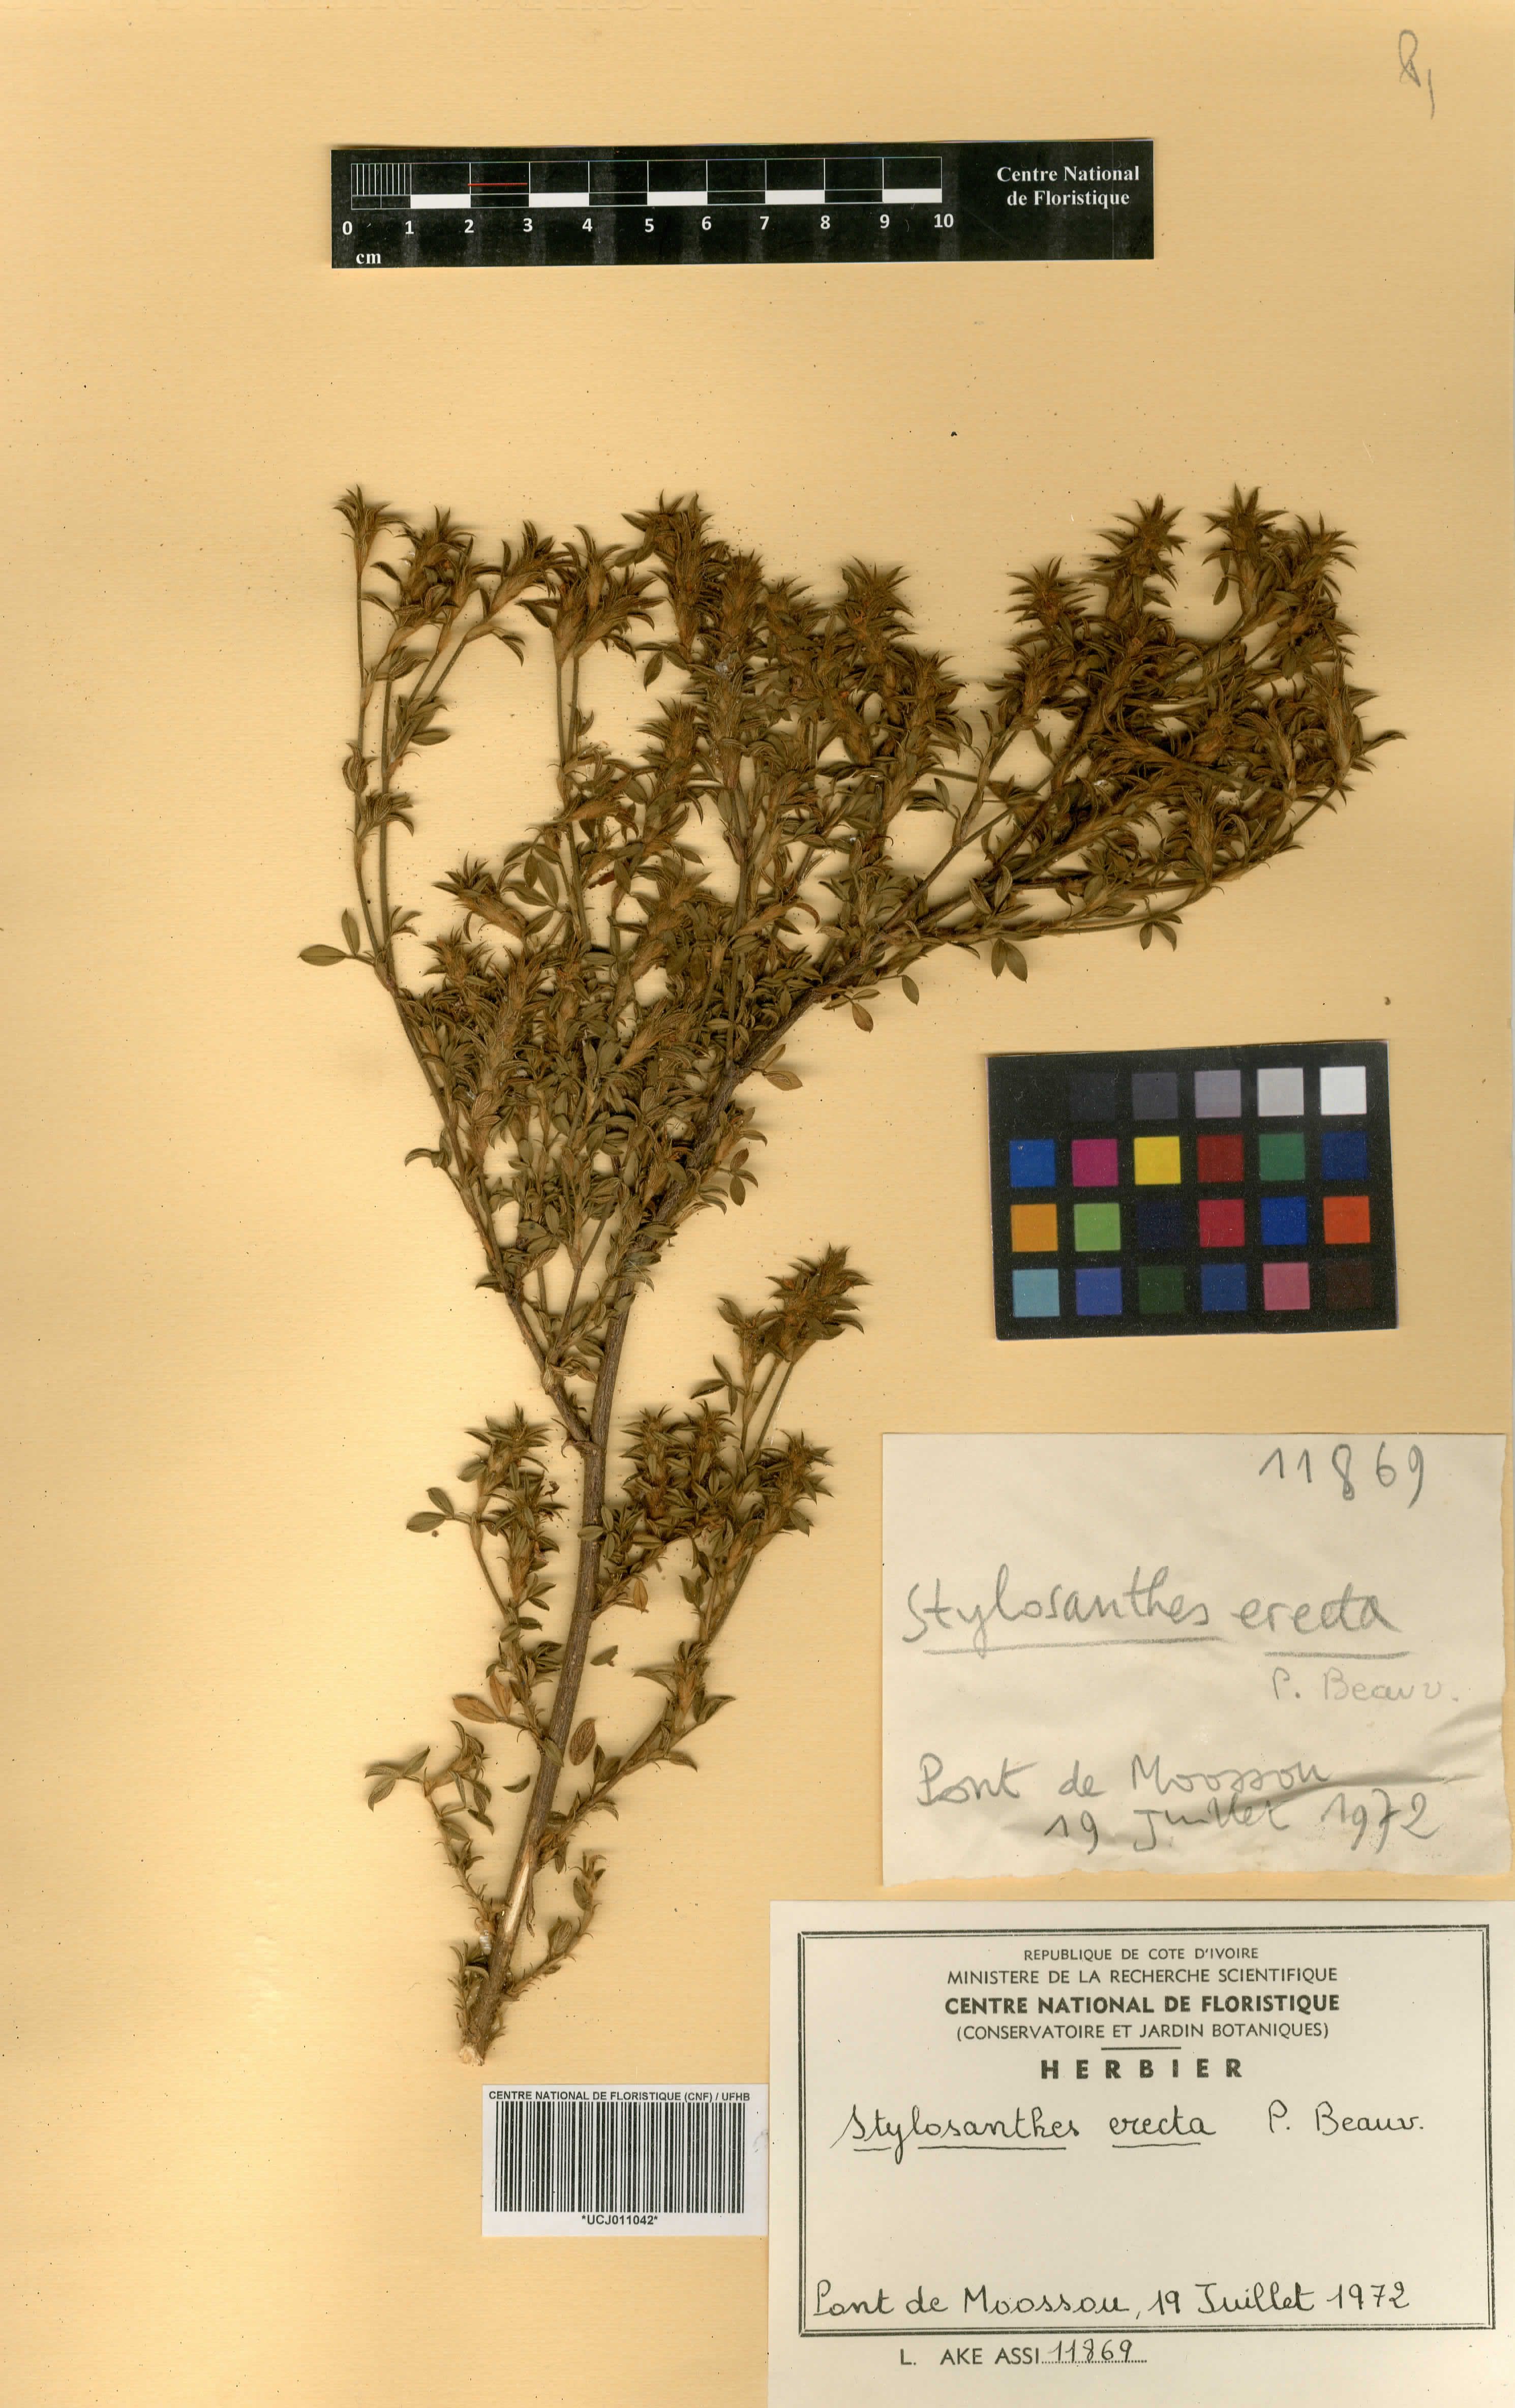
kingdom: Plantae
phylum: Tracheophyta
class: Magnoliopsida
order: Fabales
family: Fabaceae
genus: Stylosanthes
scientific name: Stylosanthes erecta
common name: Nigerian stylo
